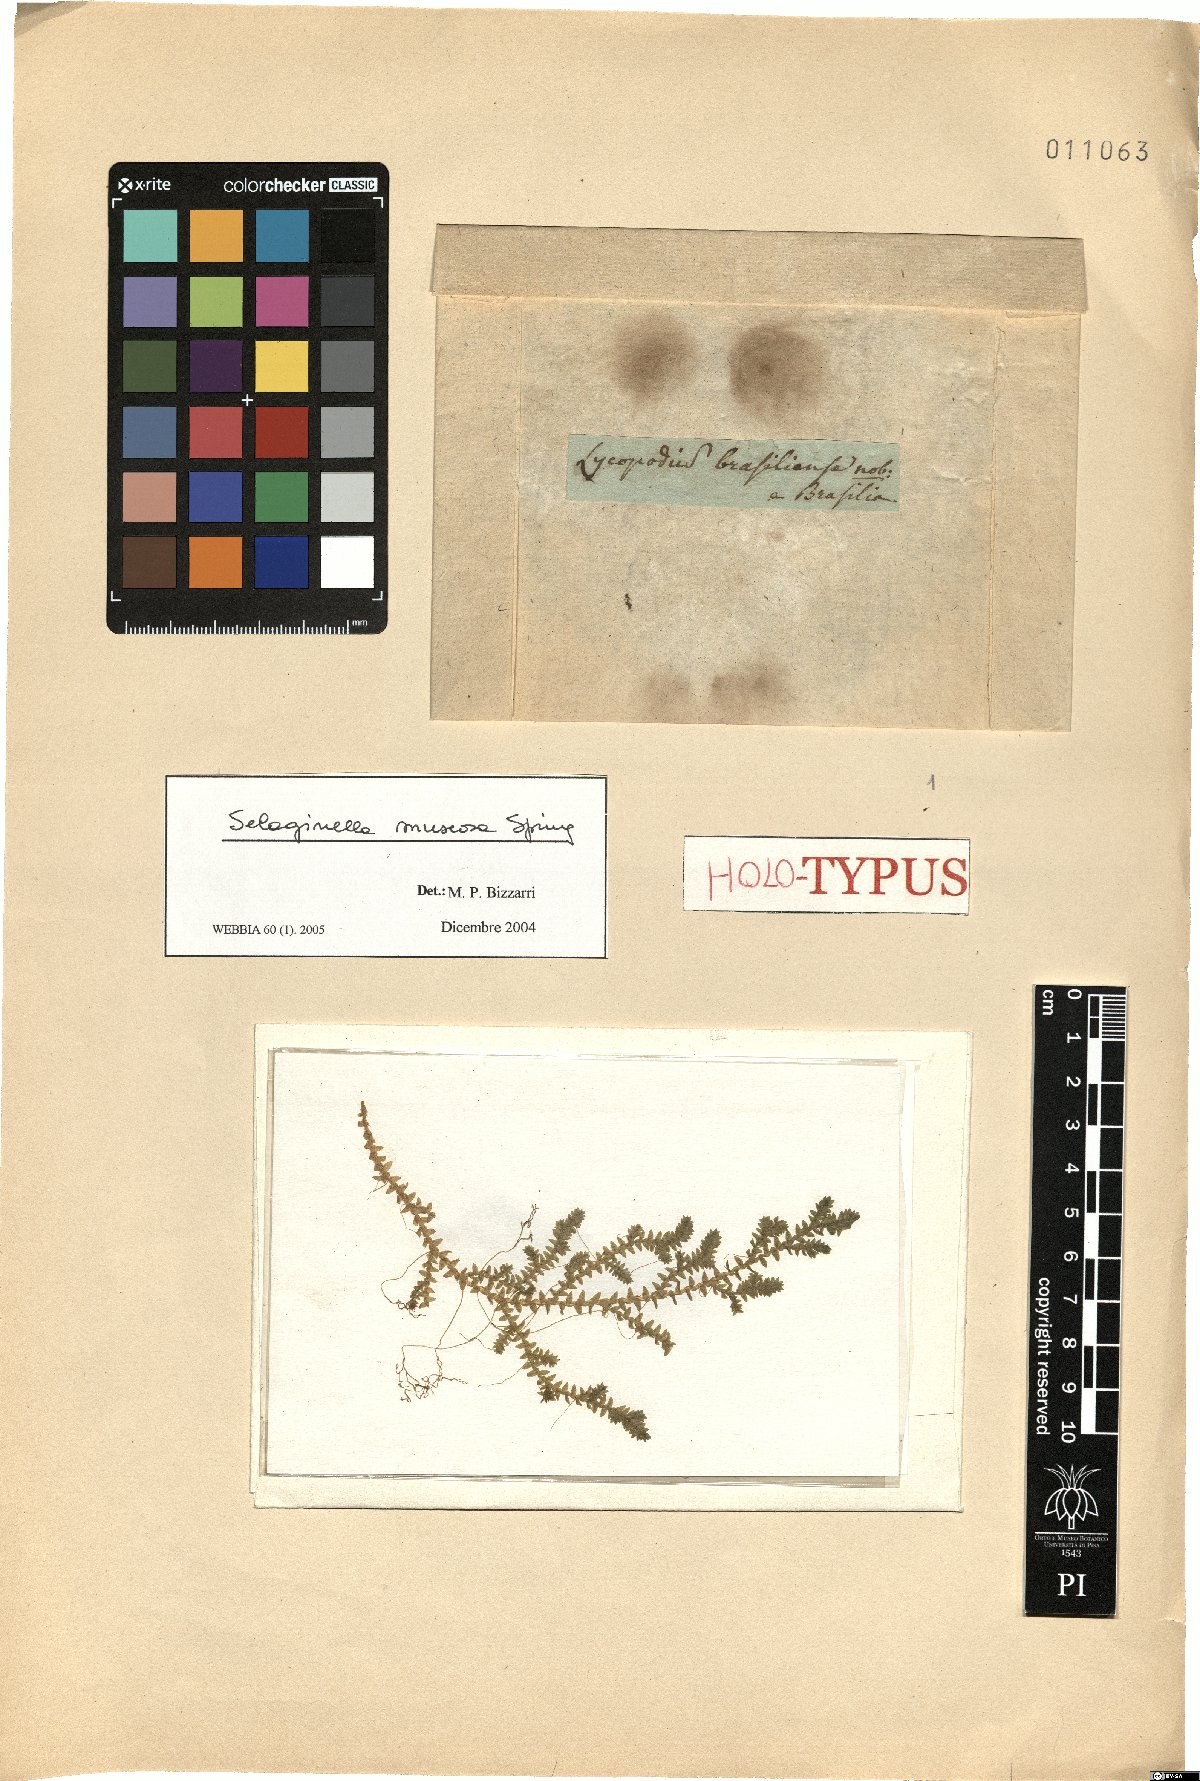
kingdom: Plantae
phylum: Tracheophyta
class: Lycopodiopsida
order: Selaginellales
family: Selaginellaceae
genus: Selaginella
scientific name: Selaginella muscosa
